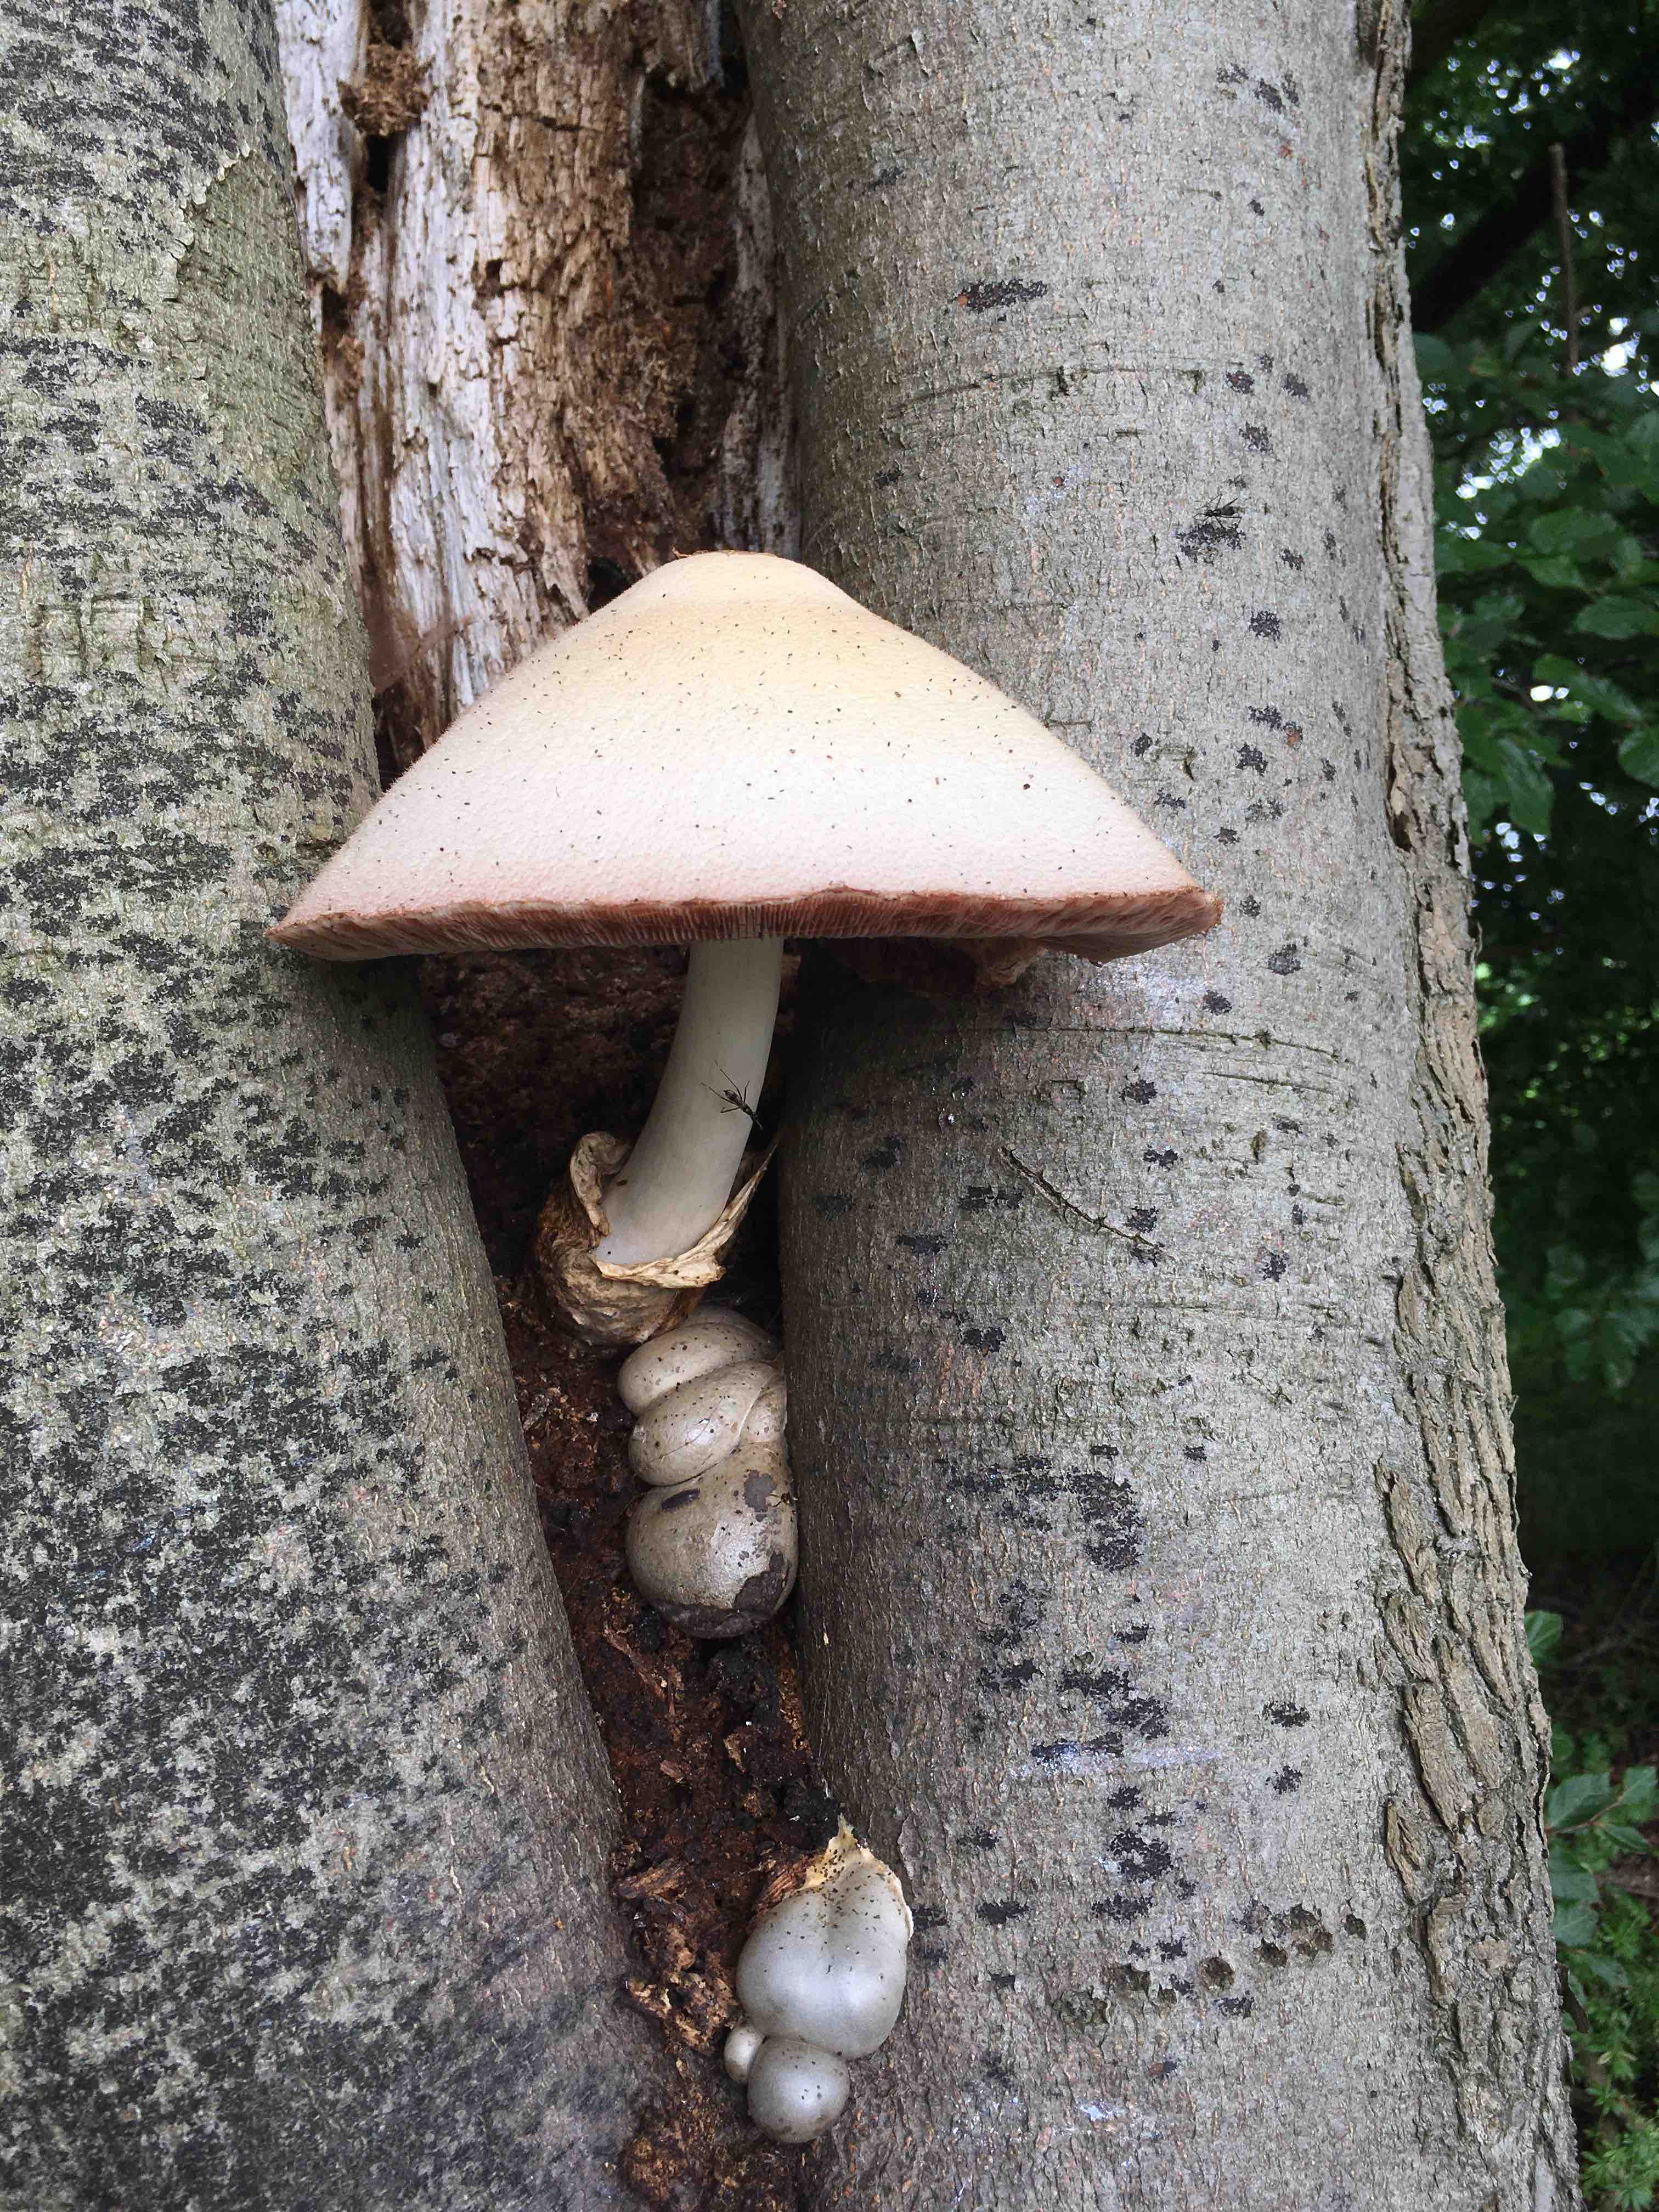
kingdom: Fungi
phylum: Basidiomycota
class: Agaricomycetes
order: Agaricales
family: Pluteaceae
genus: Volvariella
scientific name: Volvariella bombycina
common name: silkehåret posesvamp
